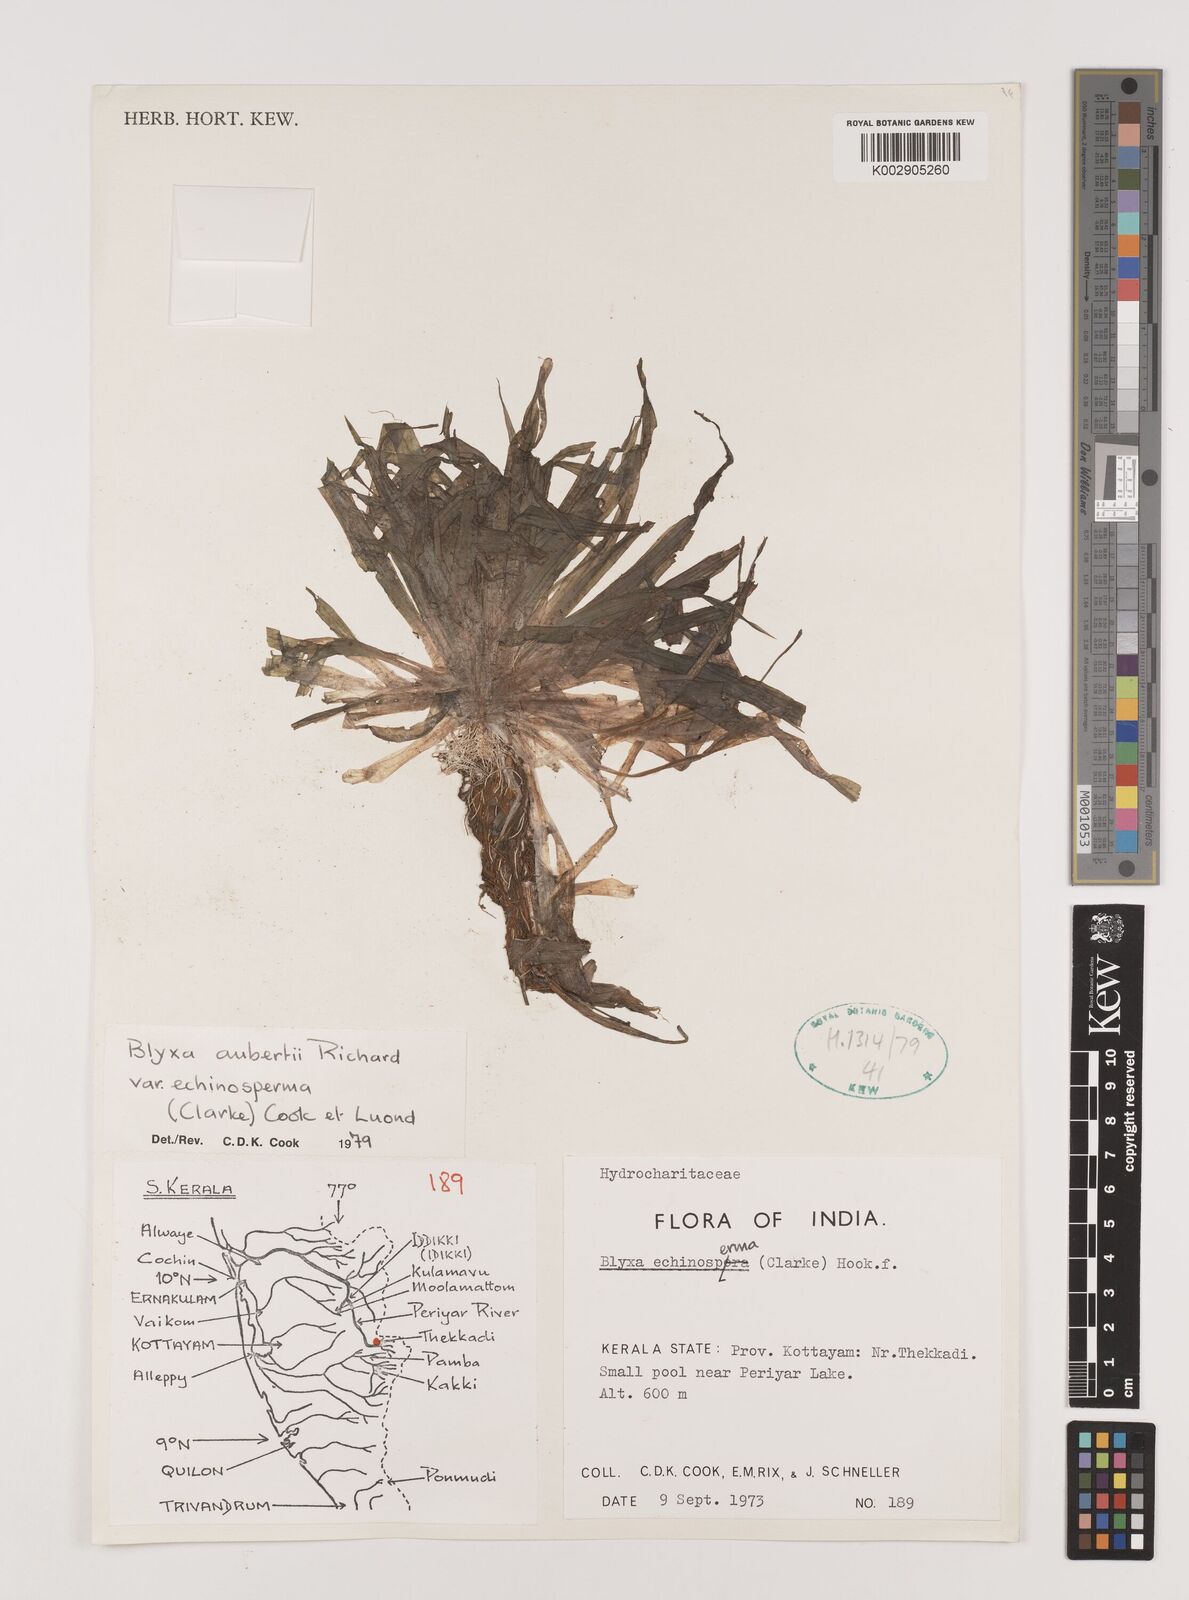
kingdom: Plantae
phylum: Tracheophyta
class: Liliopsida
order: Alismatales
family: Hydrocharitaceae
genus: Blyxa
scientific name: Blyxa echinosperma
